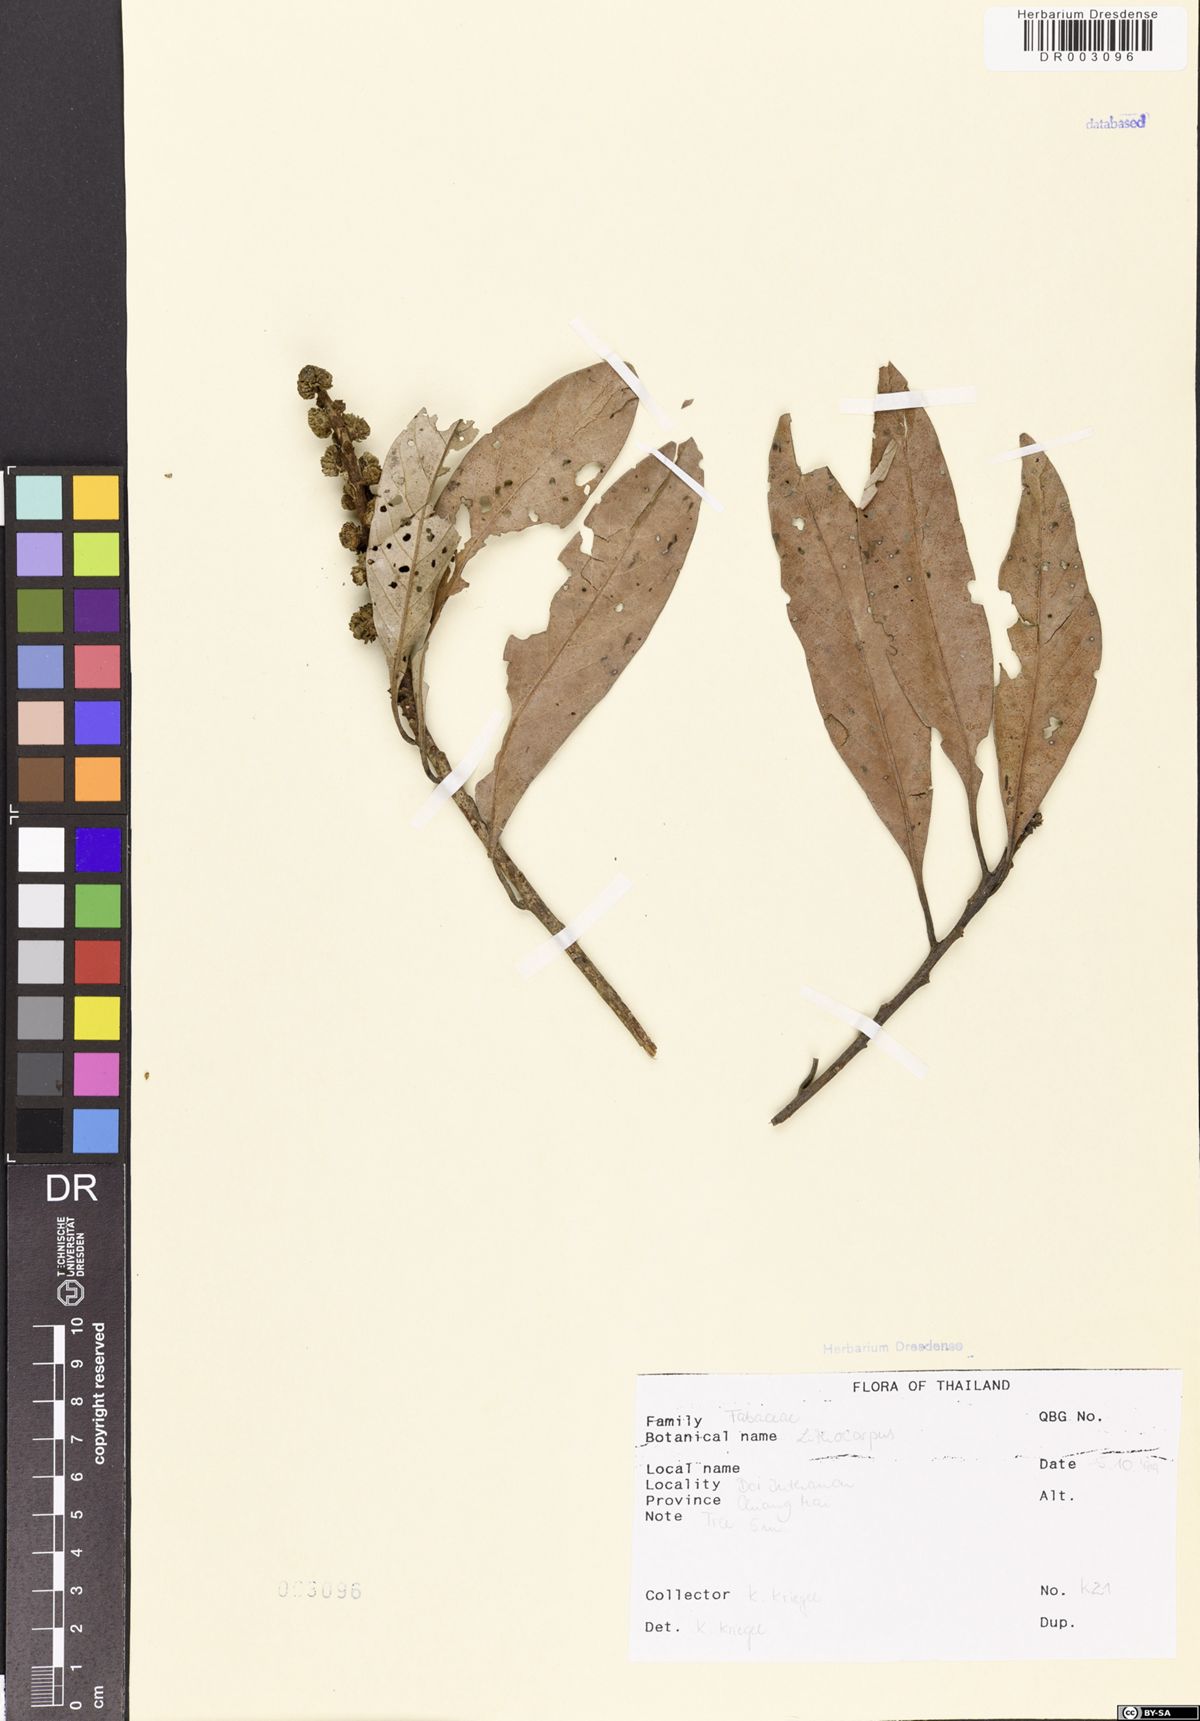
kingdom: Plantae
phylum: Tracheophyta
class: Magnoliopsida
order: Fagales
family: Fagaceae
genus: Lithocarpus
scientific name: Lithocarpus
